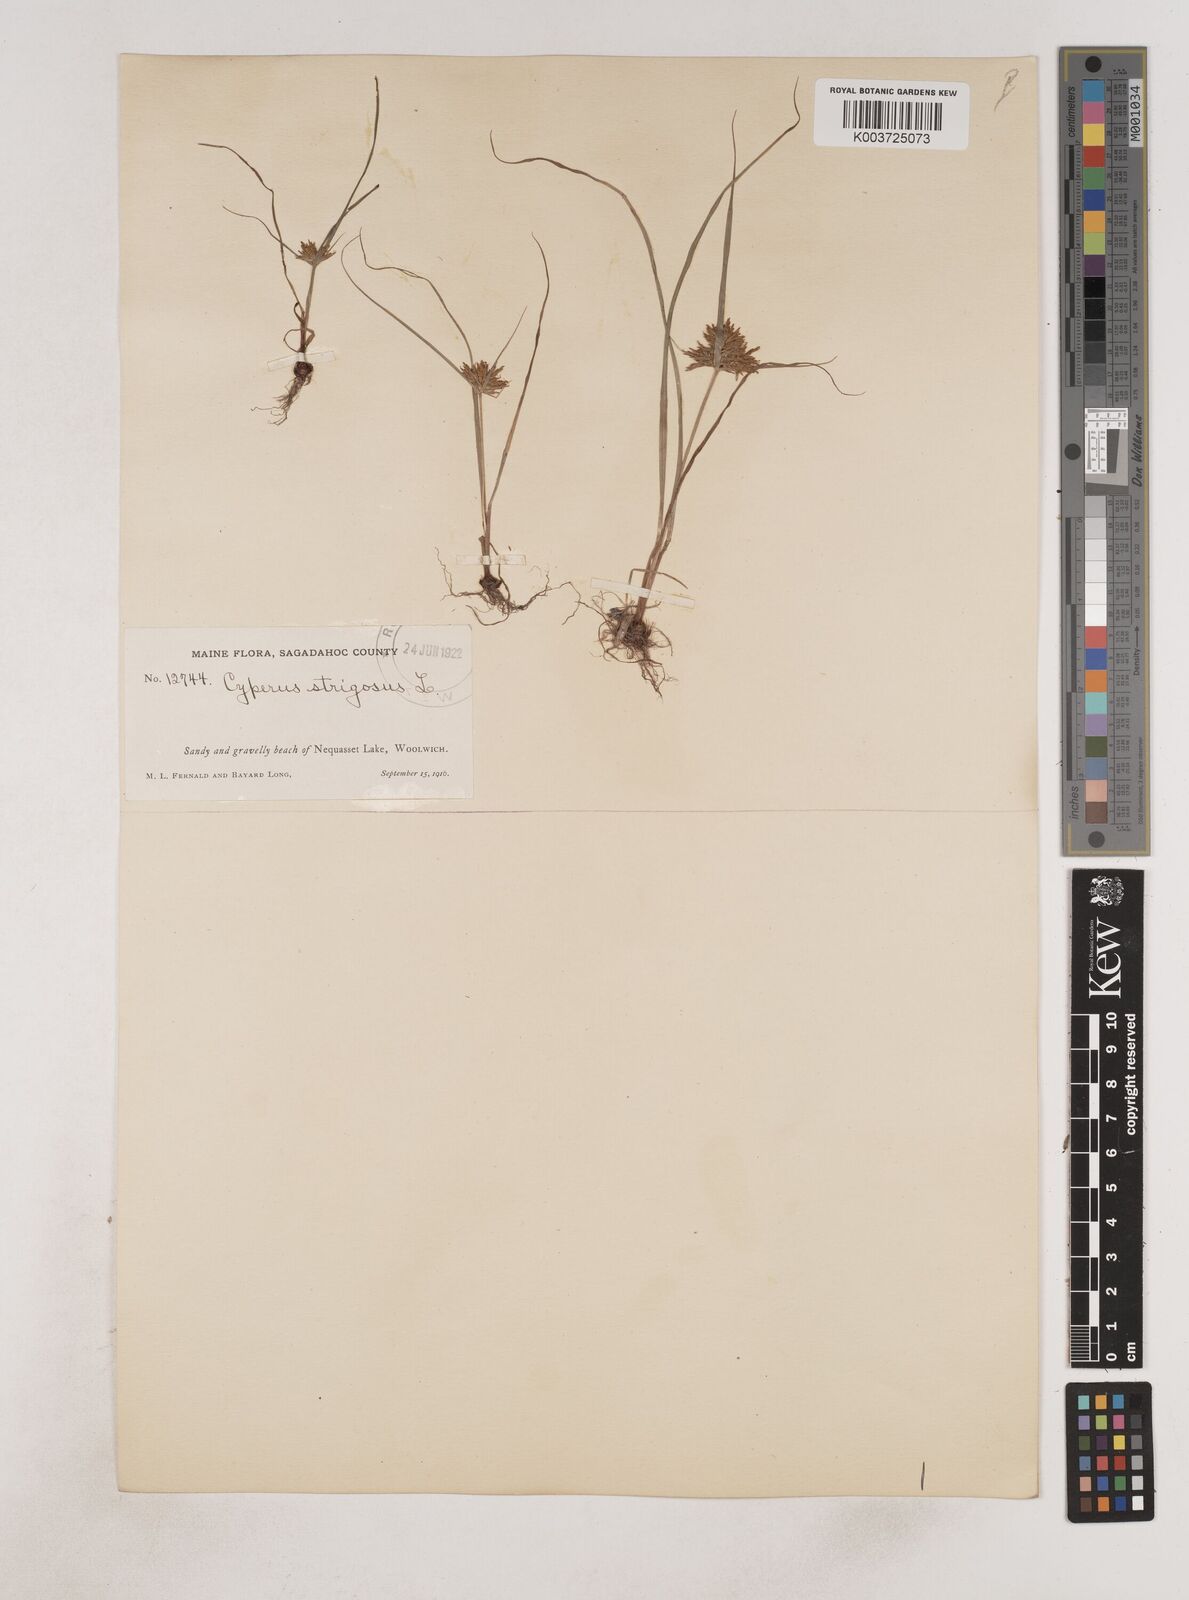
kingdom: Plantae
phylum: Tracheophyta
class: Liliopsida
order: Poales
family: Cyperaceae
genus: Cyperus
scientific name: Cyperus strigosus
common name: False nutsedge
